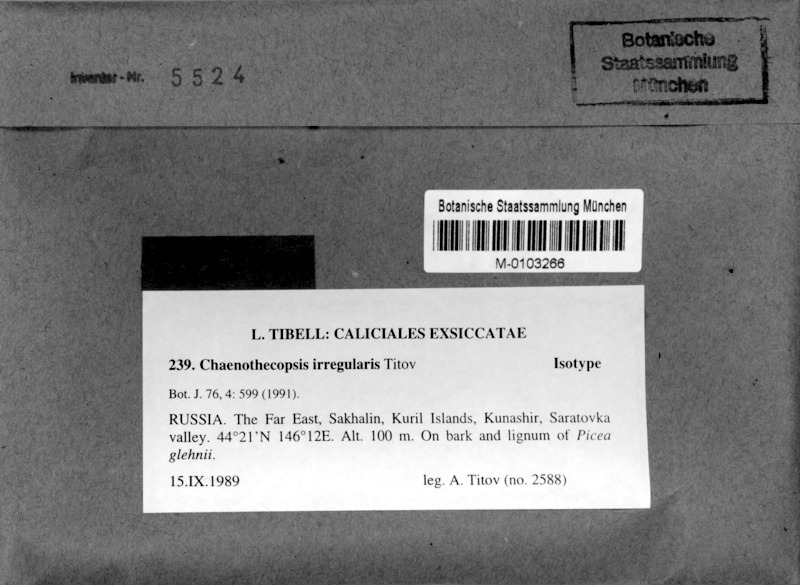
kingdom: Fungi
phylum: Ascomycota
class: Eurotiomycetes
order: Mycocaliciales
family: Mycocaliciaceae
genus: Chaenothecopsis
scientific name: Chaenothecopsis irregularis
